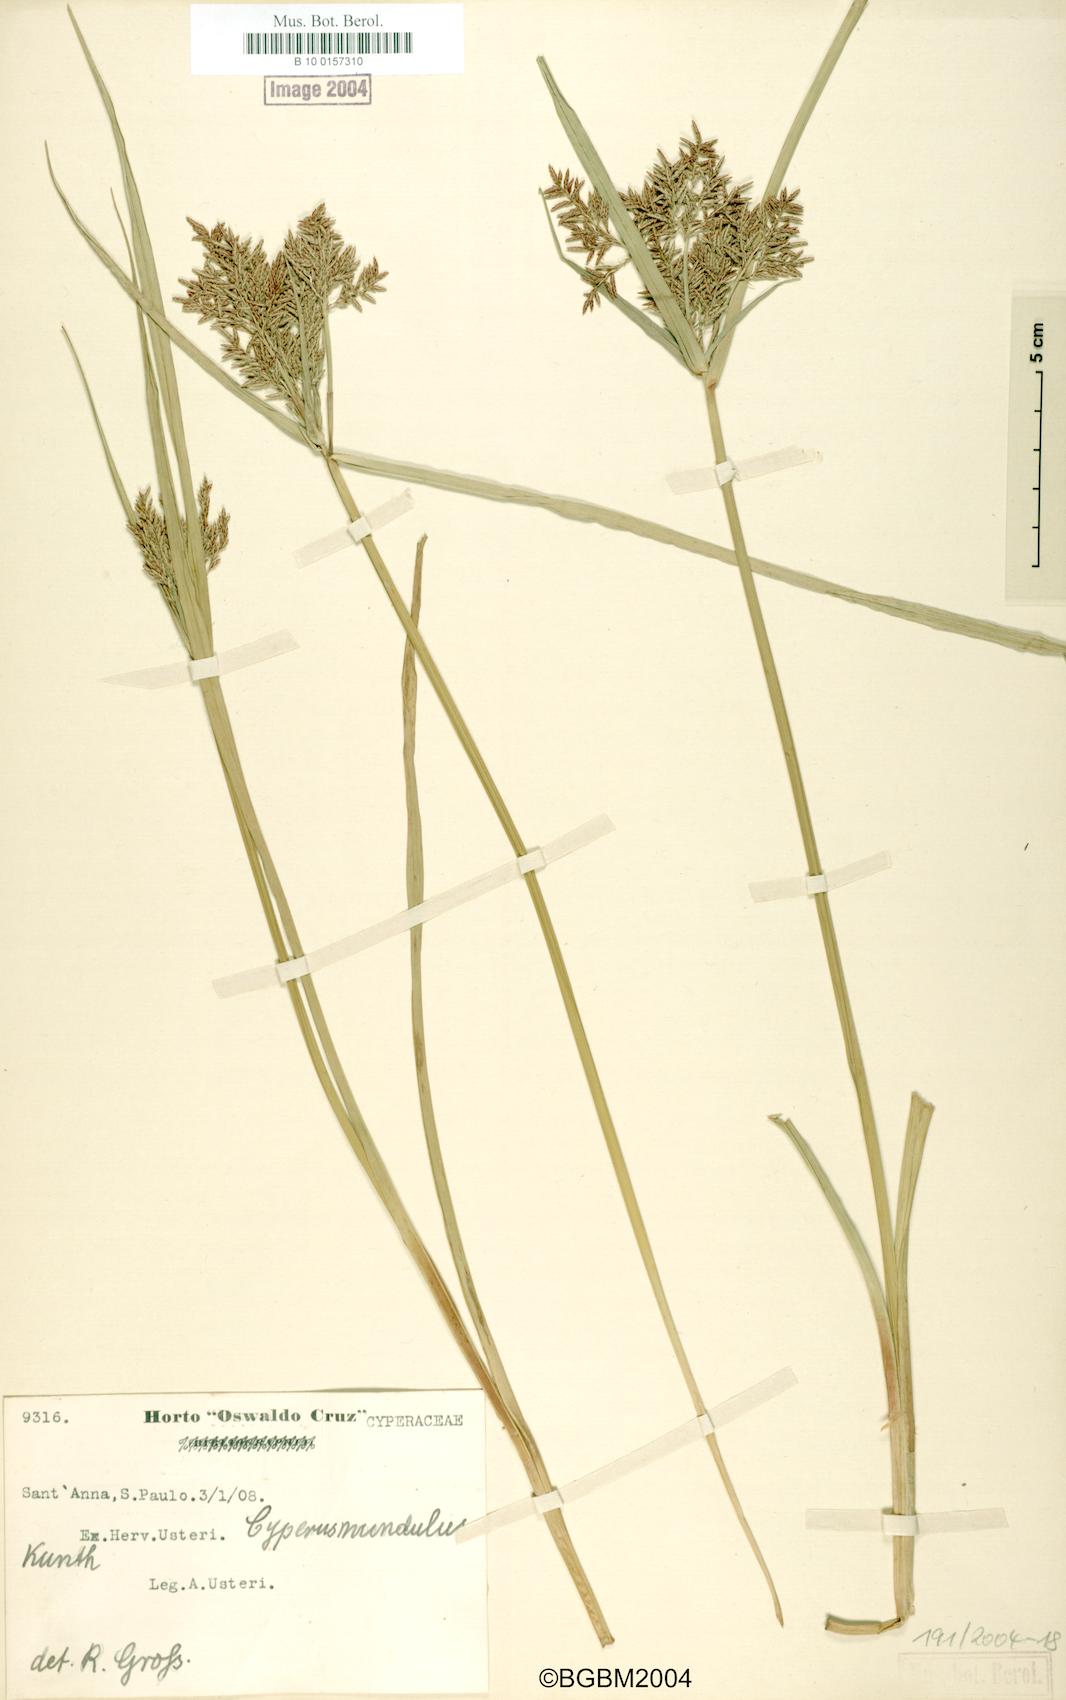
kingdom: Plantae
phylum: Tracheophyta
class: Liliopsida
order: Poales
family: Cyperaceae
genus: Cyperus
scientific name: Cyperus mundulus
